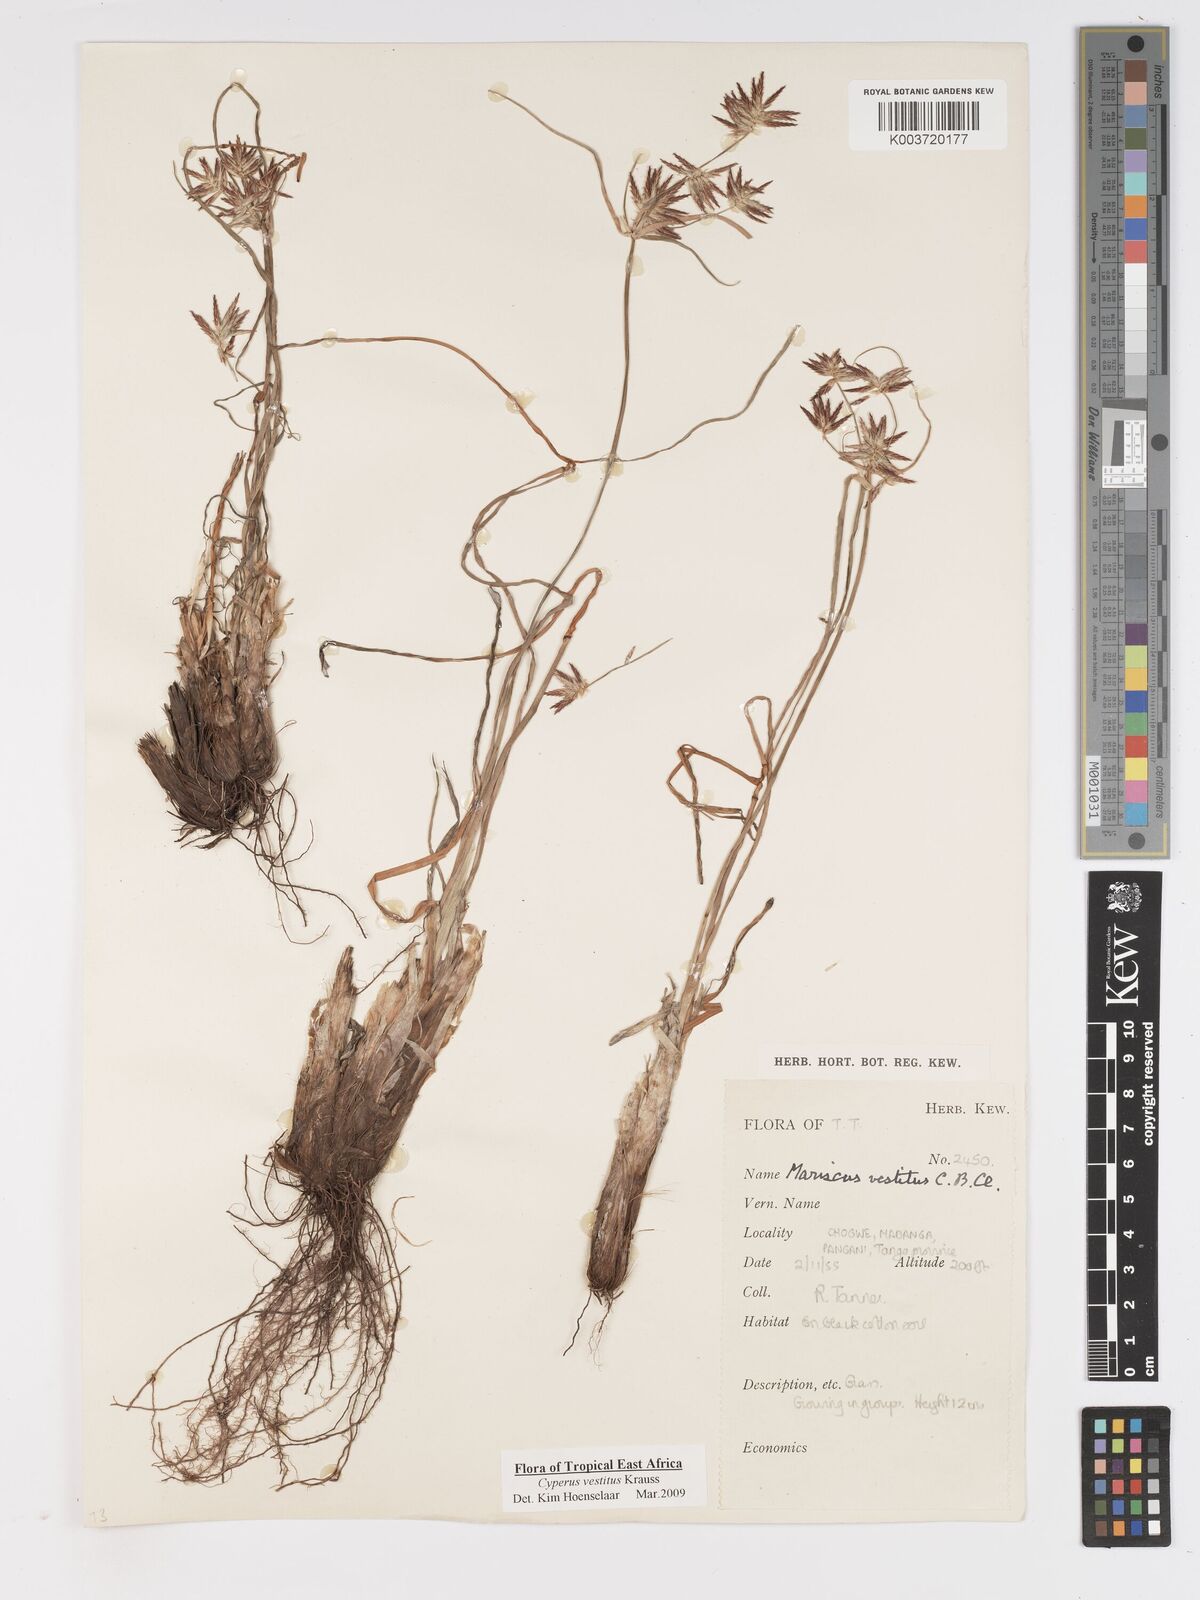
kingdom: Plantae
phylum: Tracheophyta
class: Liliopsida
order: Poales
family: Cyperaceae
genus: Cyperus
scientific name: Cyperus vestitus
